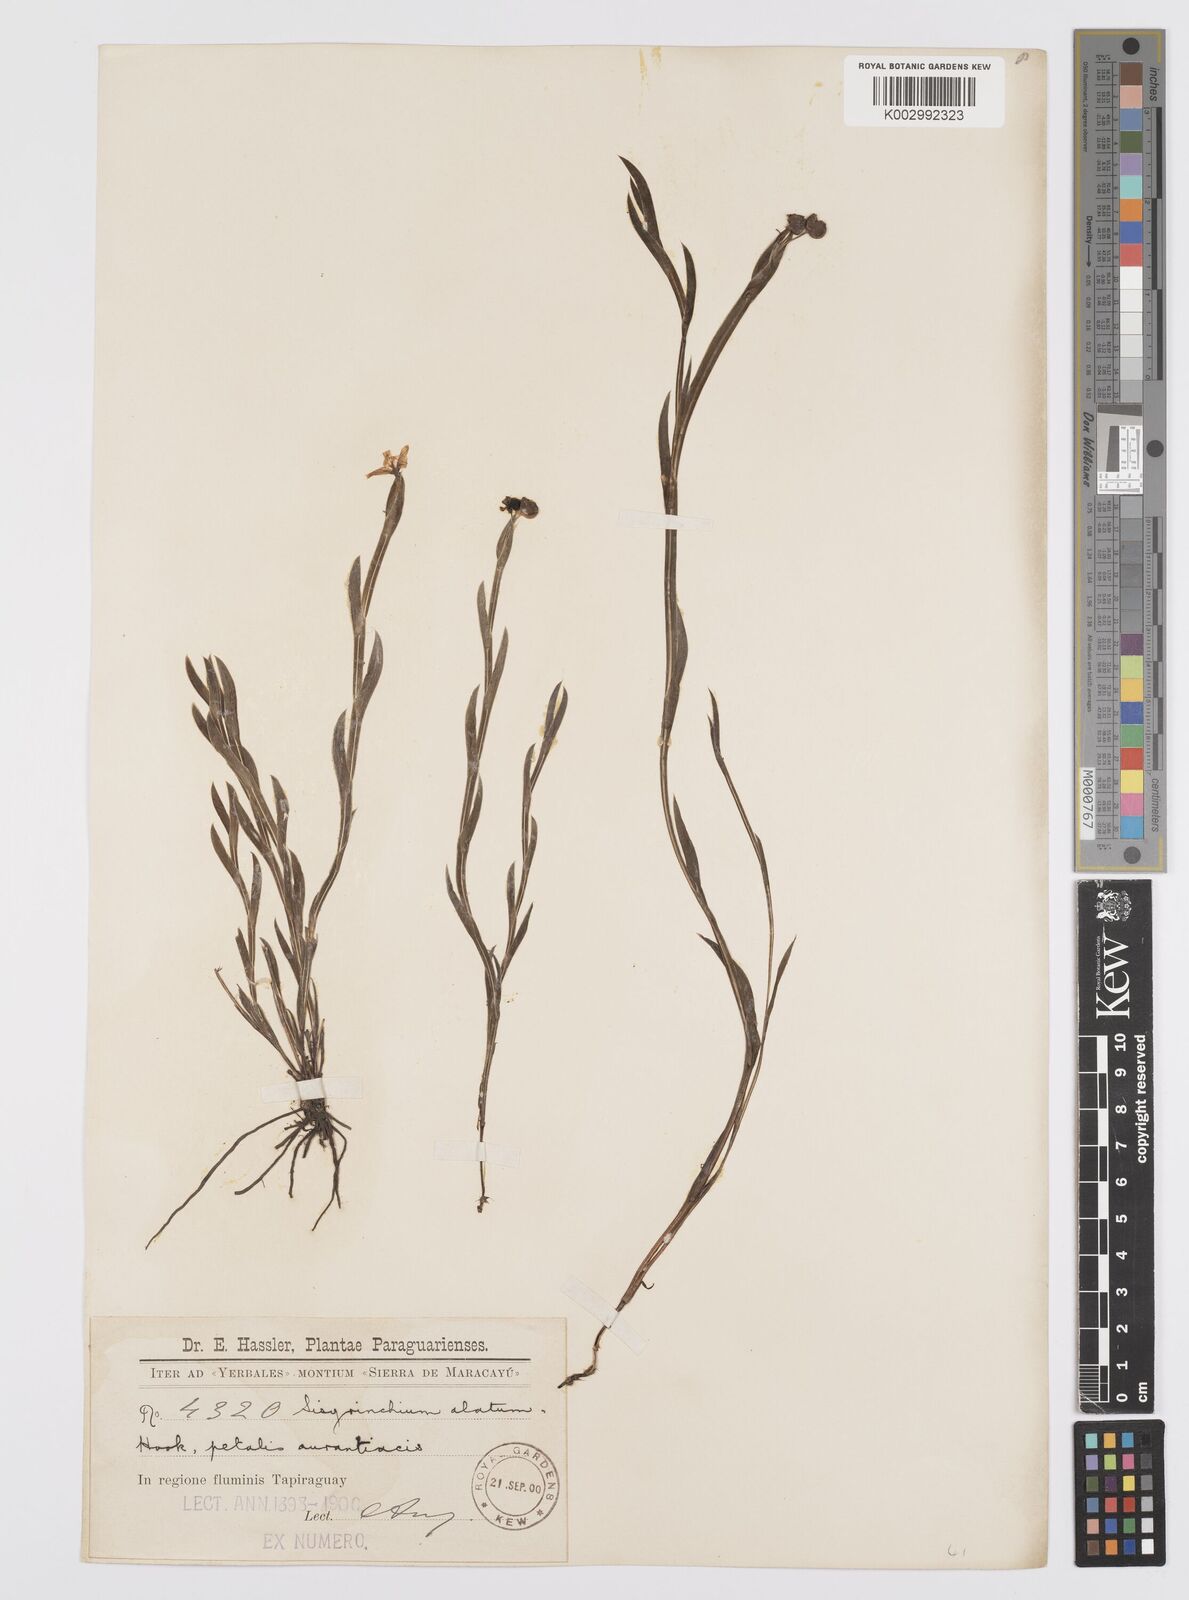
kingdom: Plantae
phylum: Tracheophyta
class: Liliopsida
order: Asparagales
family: Iridaceae
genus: Sisyrinchium
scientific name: Sisyrinchium vaginatum
